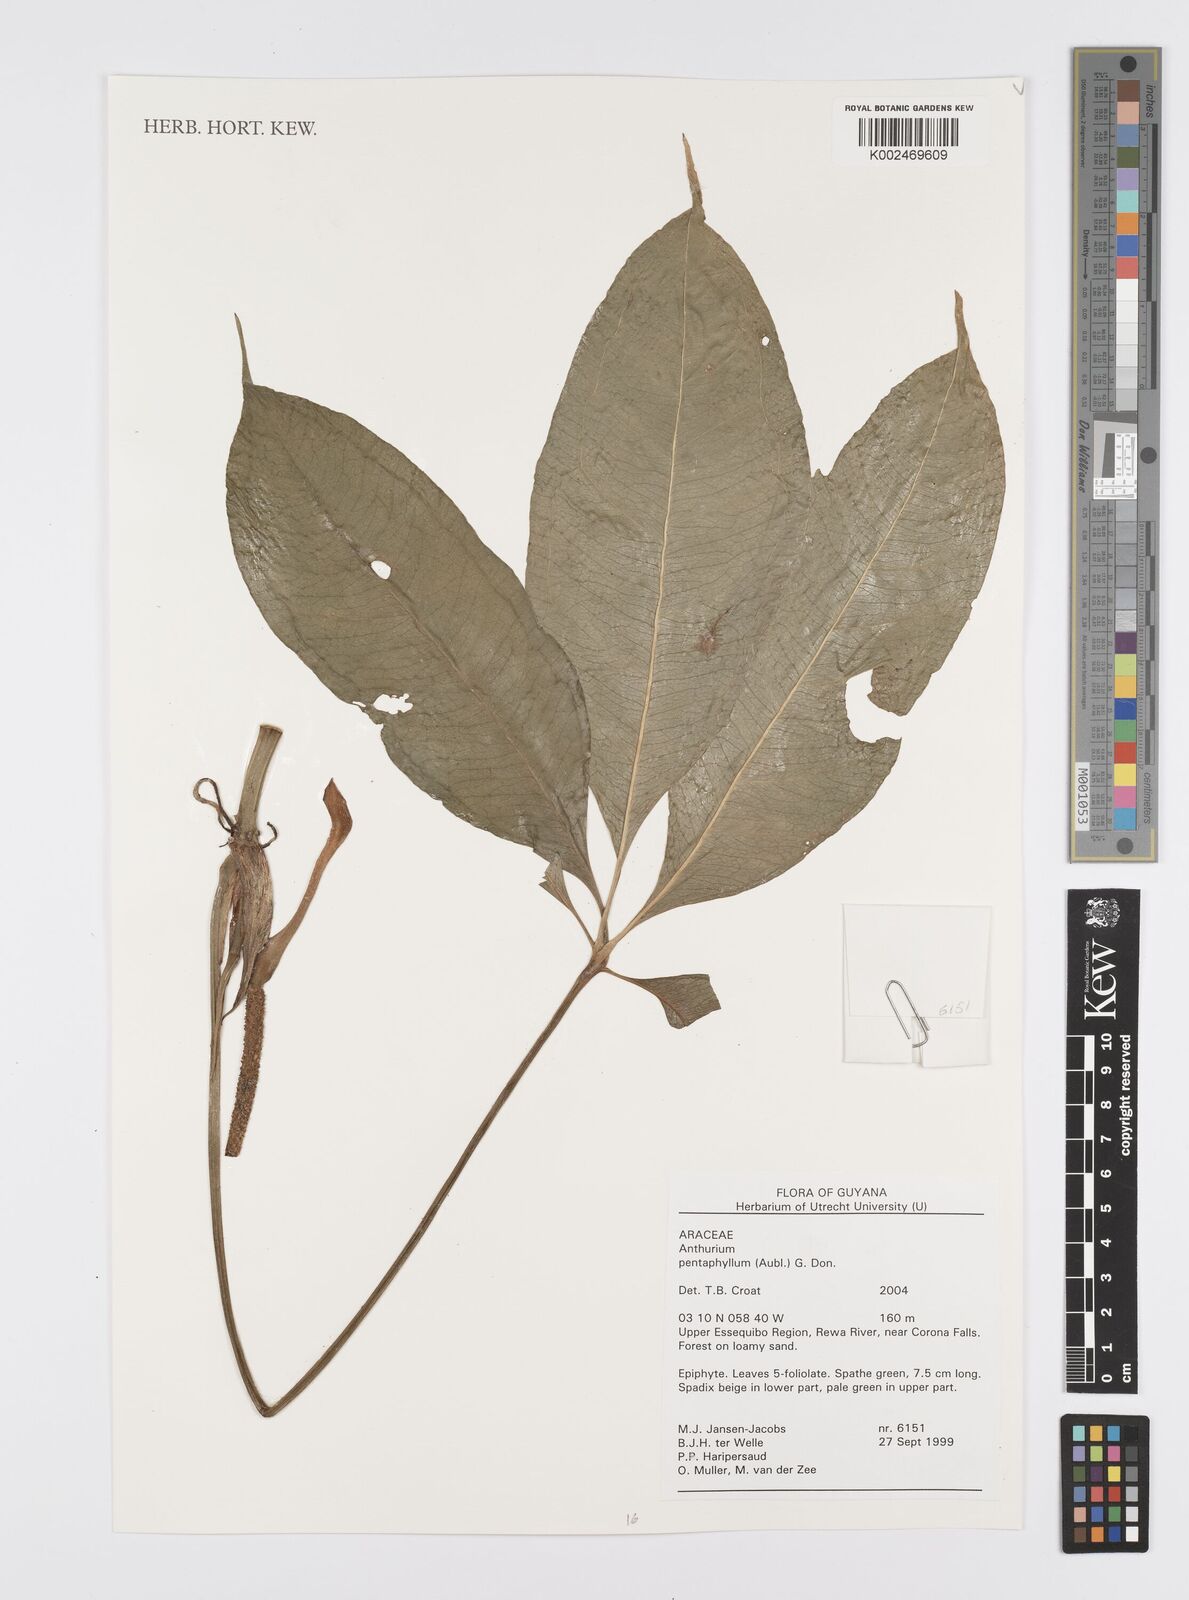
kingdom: Plantae
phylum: Tracheophyta
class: Liliopsida
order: Alismatales
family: Araceae
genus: Anthurium
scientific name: Anthurium pentaphyllum
